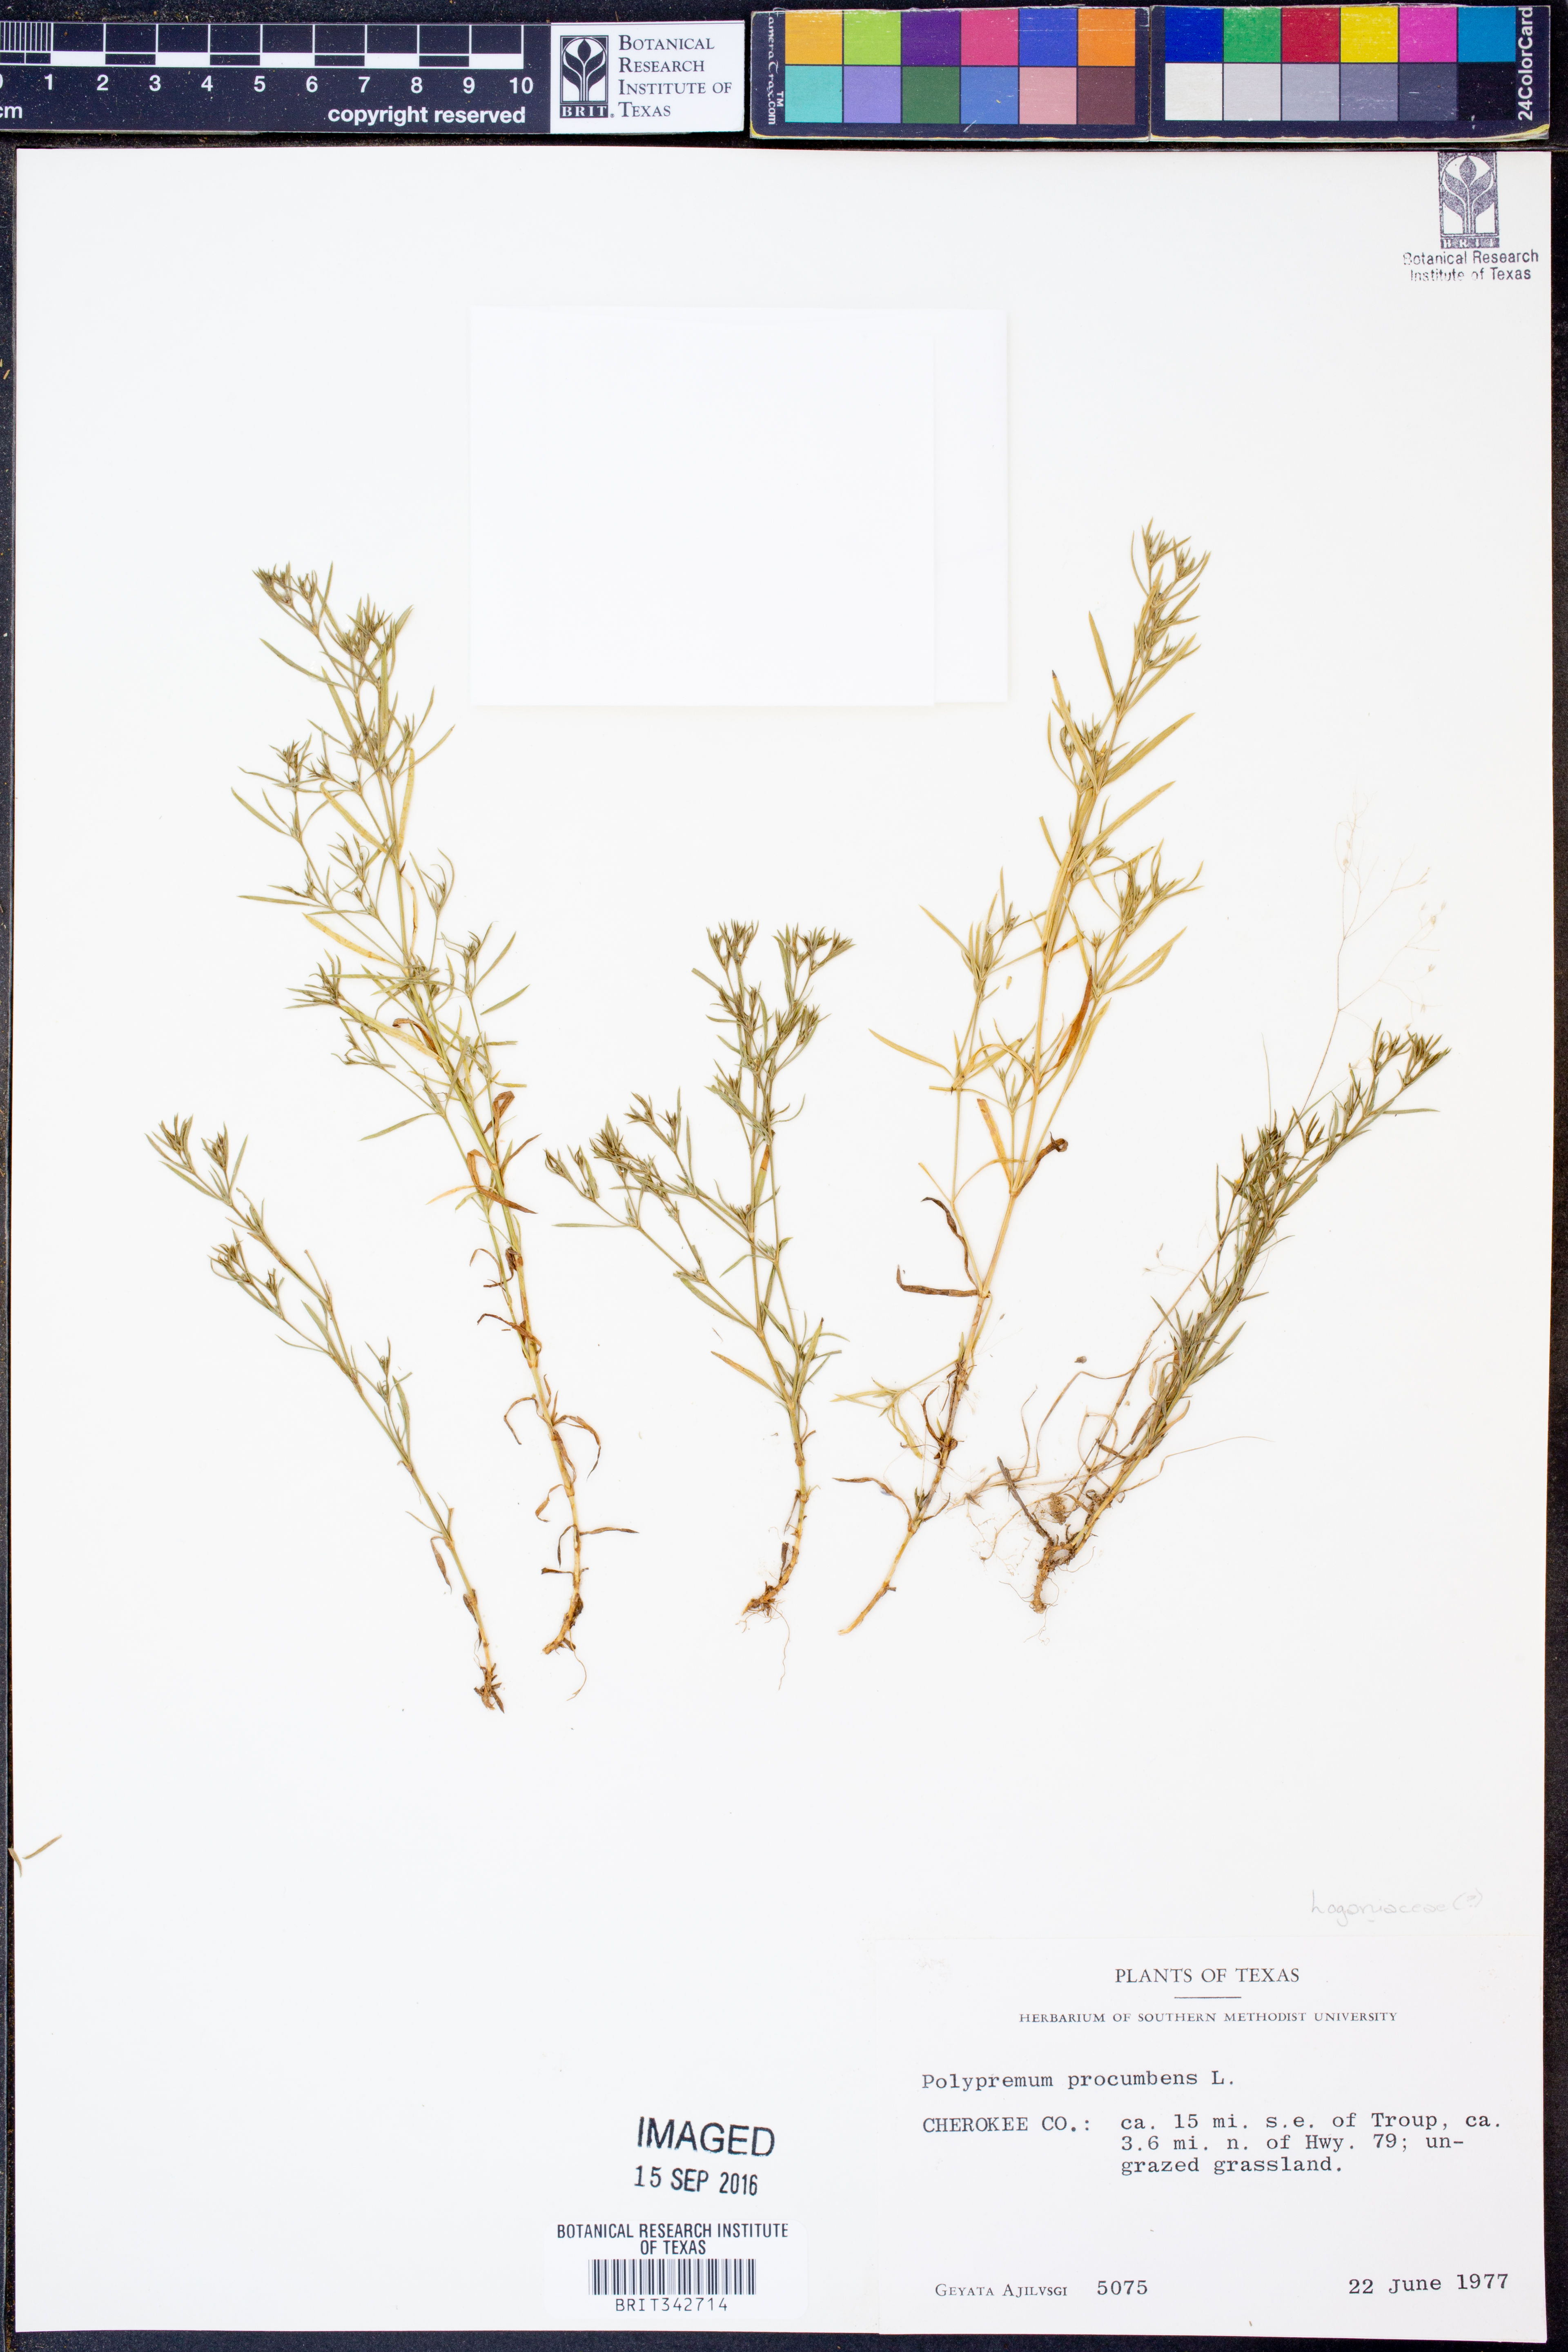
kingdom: Plantae
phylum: Tracheophyta
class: Magnoliopsida
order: Lamiales
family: Tetrachondraceae
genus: Polypremum
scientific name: Polypremum procumbens
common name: Juniper-leaf
